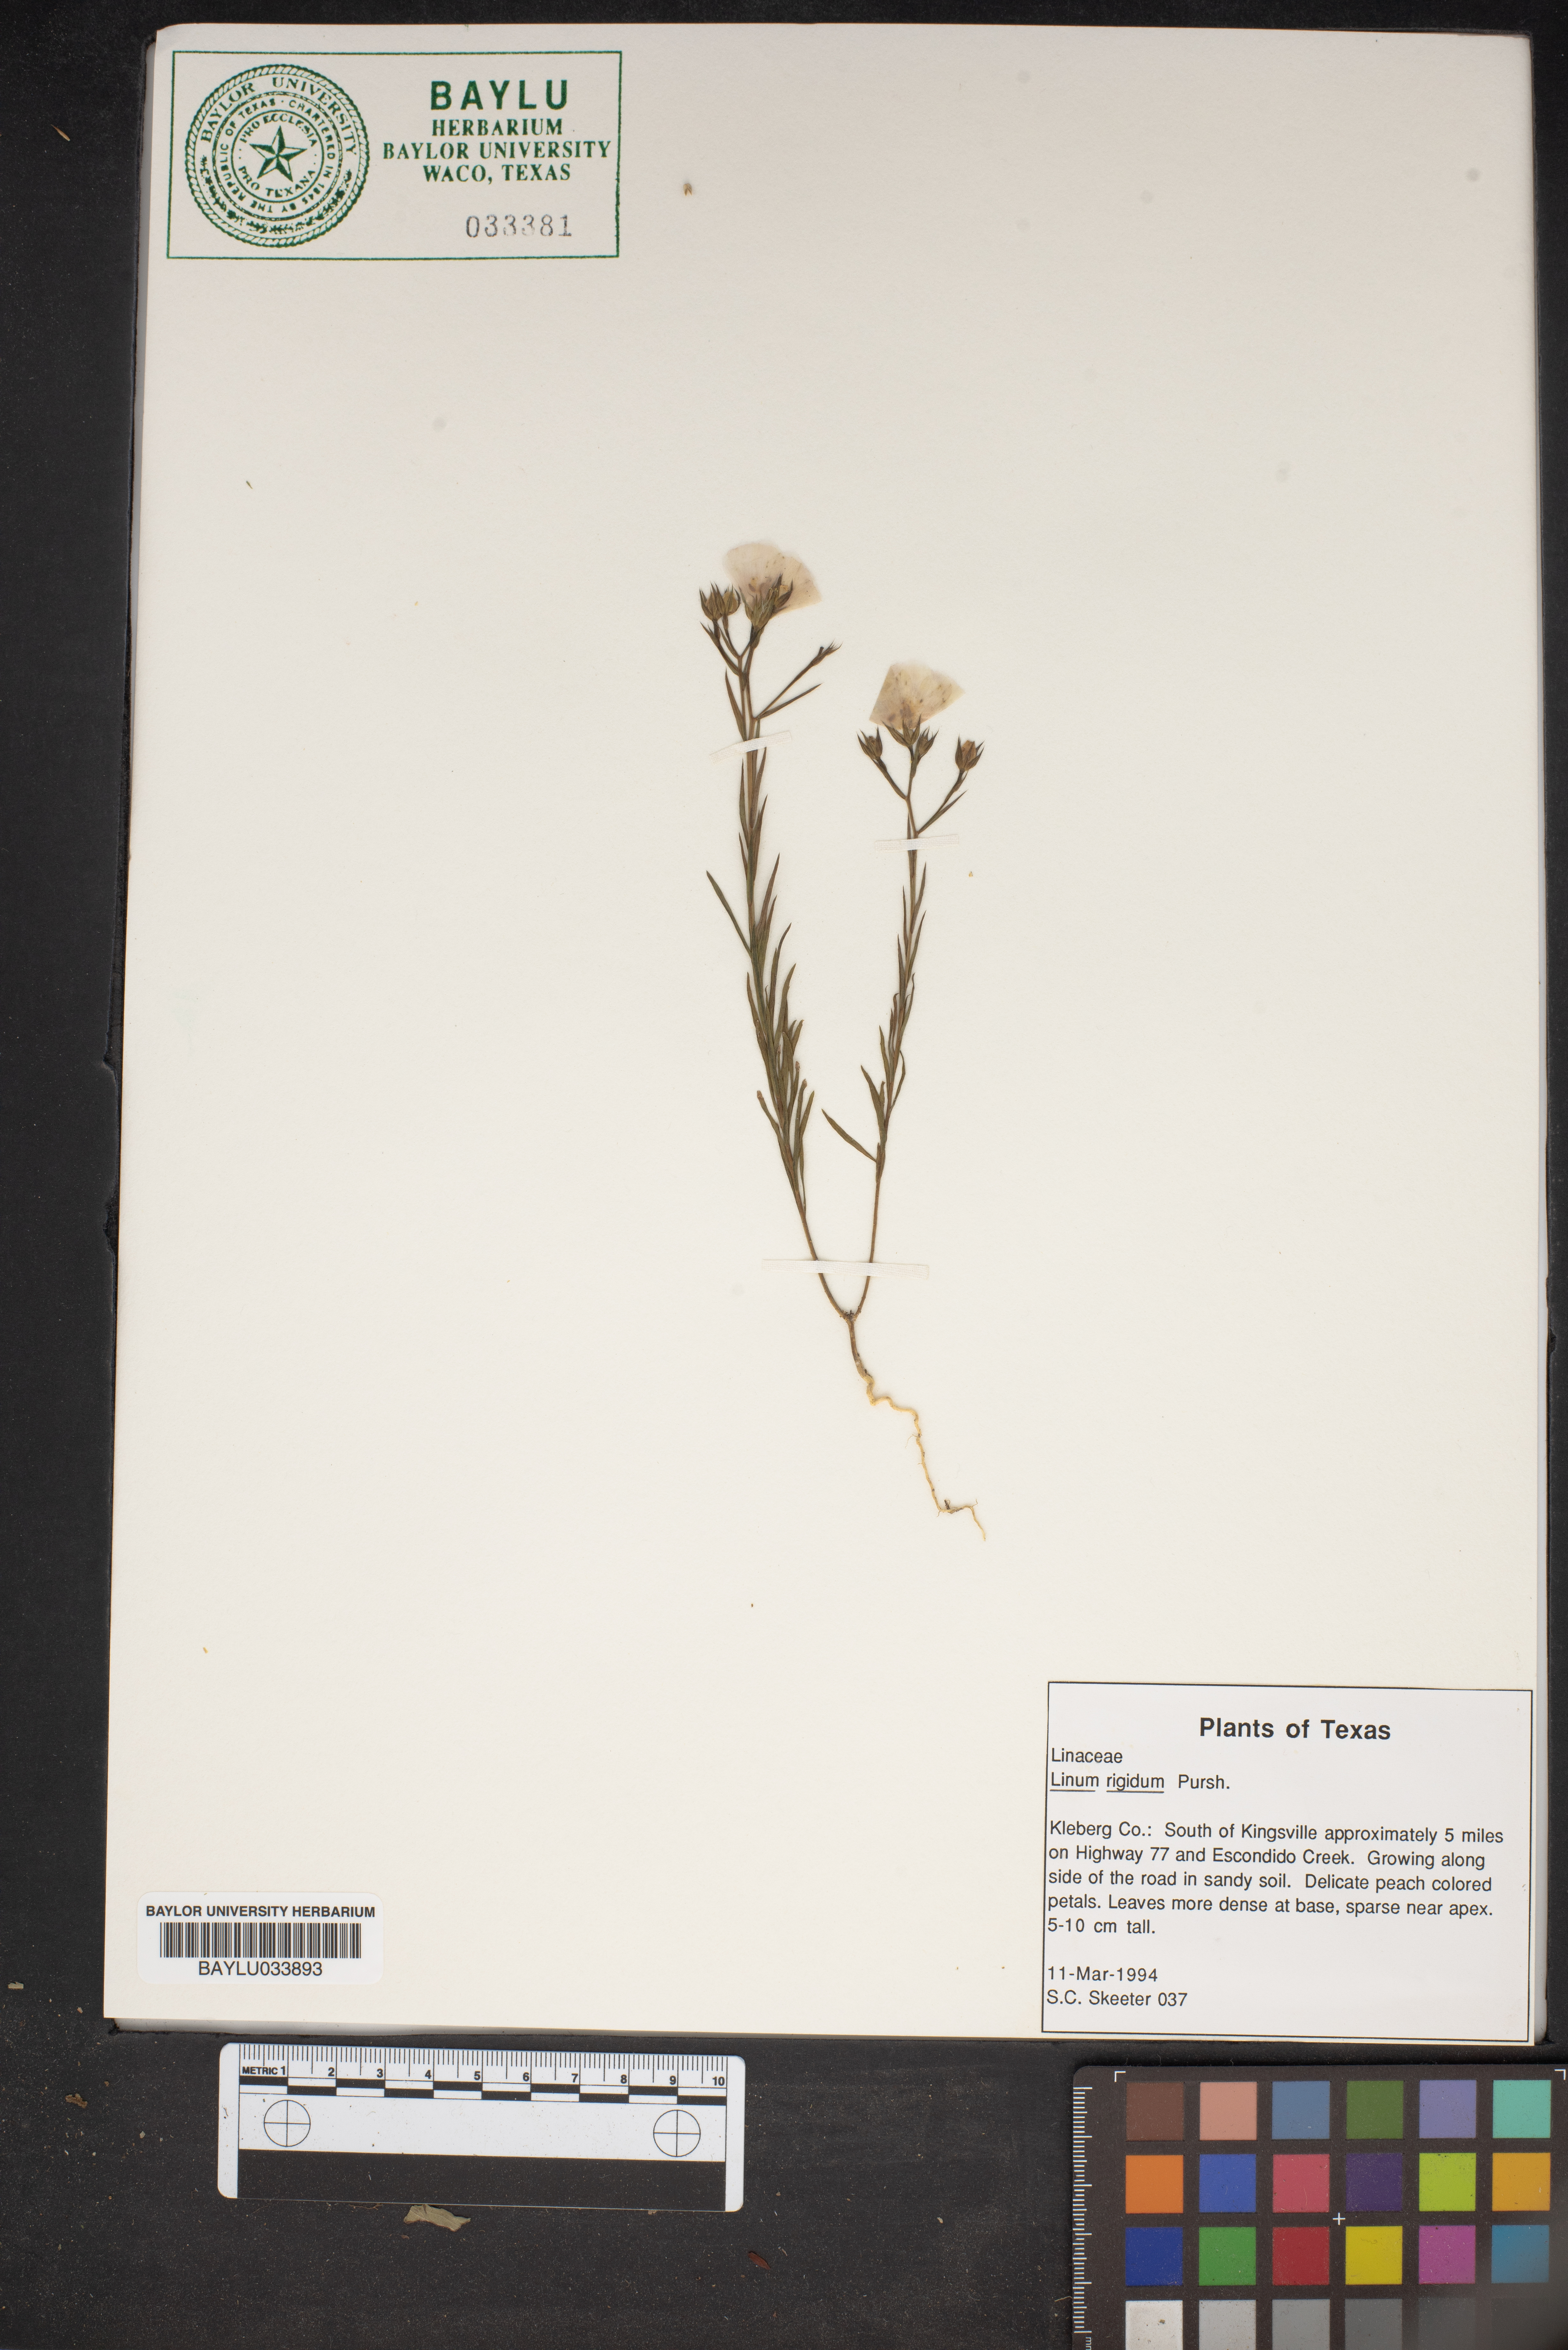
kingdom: Plantae
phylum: Tracheophyta
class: Magnoliopsida
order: Malpighiales
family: Linaceae
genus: Linum
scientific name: Linum rigidum
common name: Stiff-stem flax
